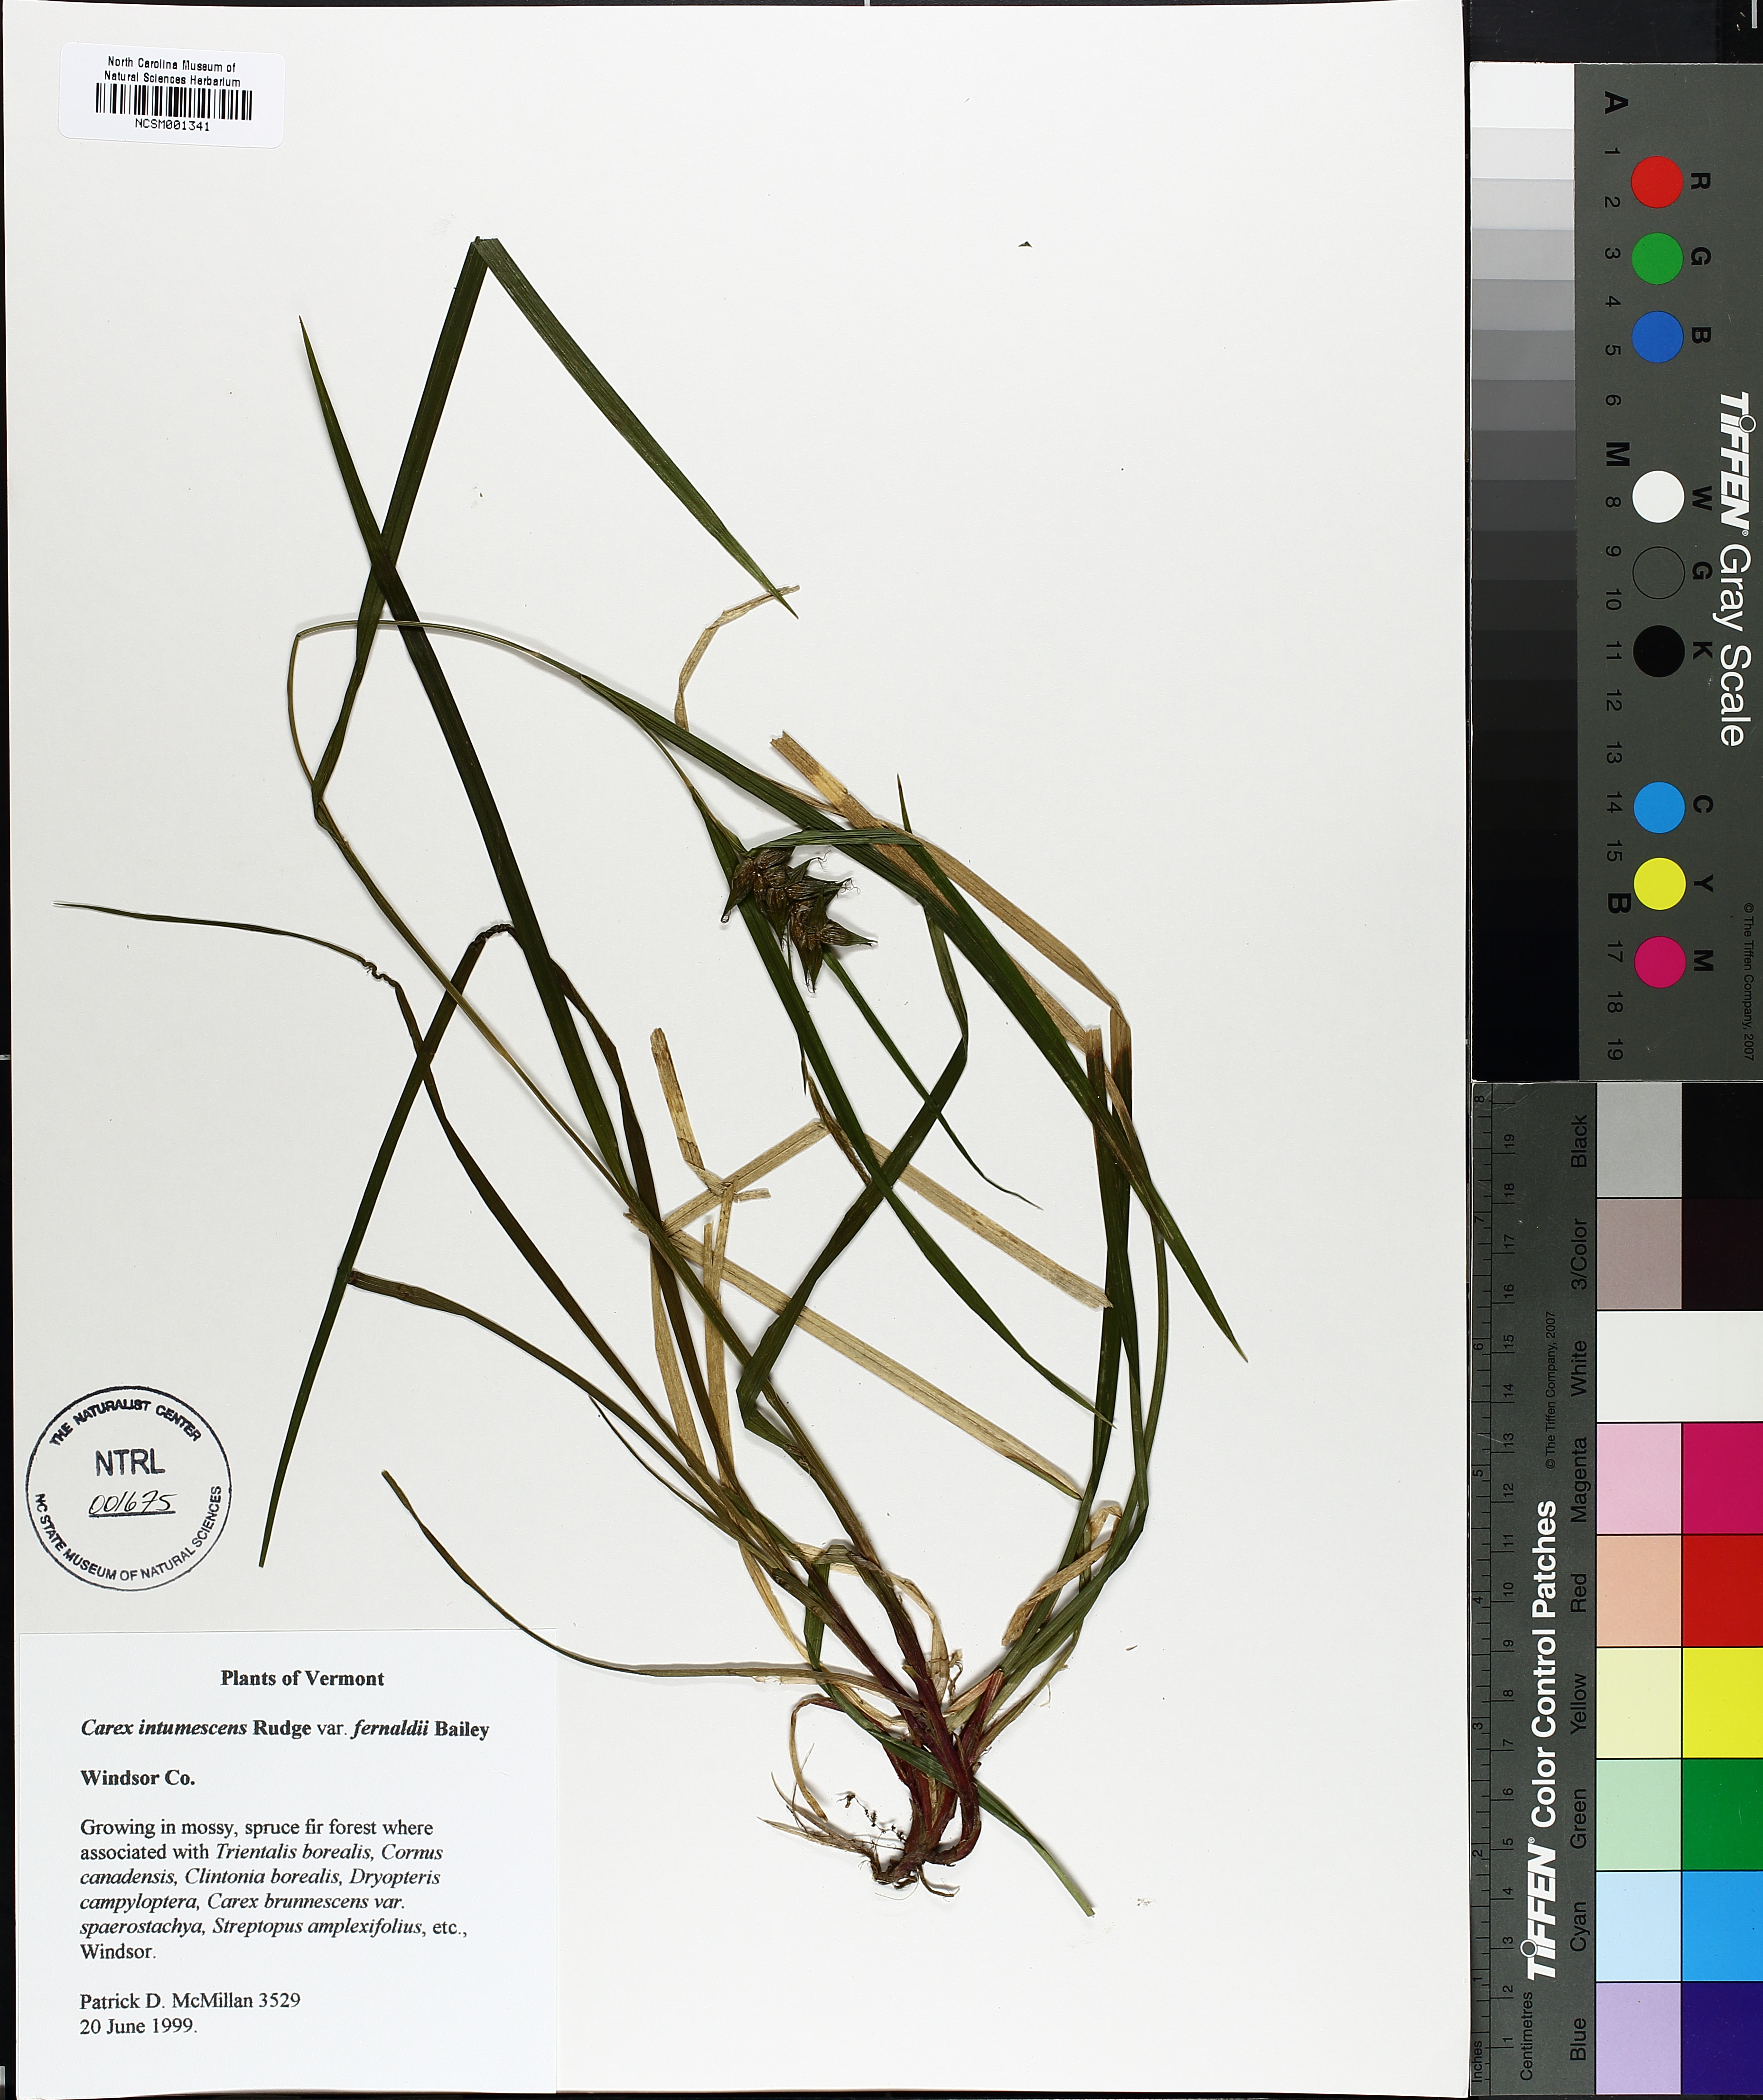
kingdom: Plantae
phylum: Tracheophyta
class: Liliopsida
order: Poales
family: Cyperaceae
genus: Carex
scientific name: Carex intumescens
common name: Greater bladder sedge
